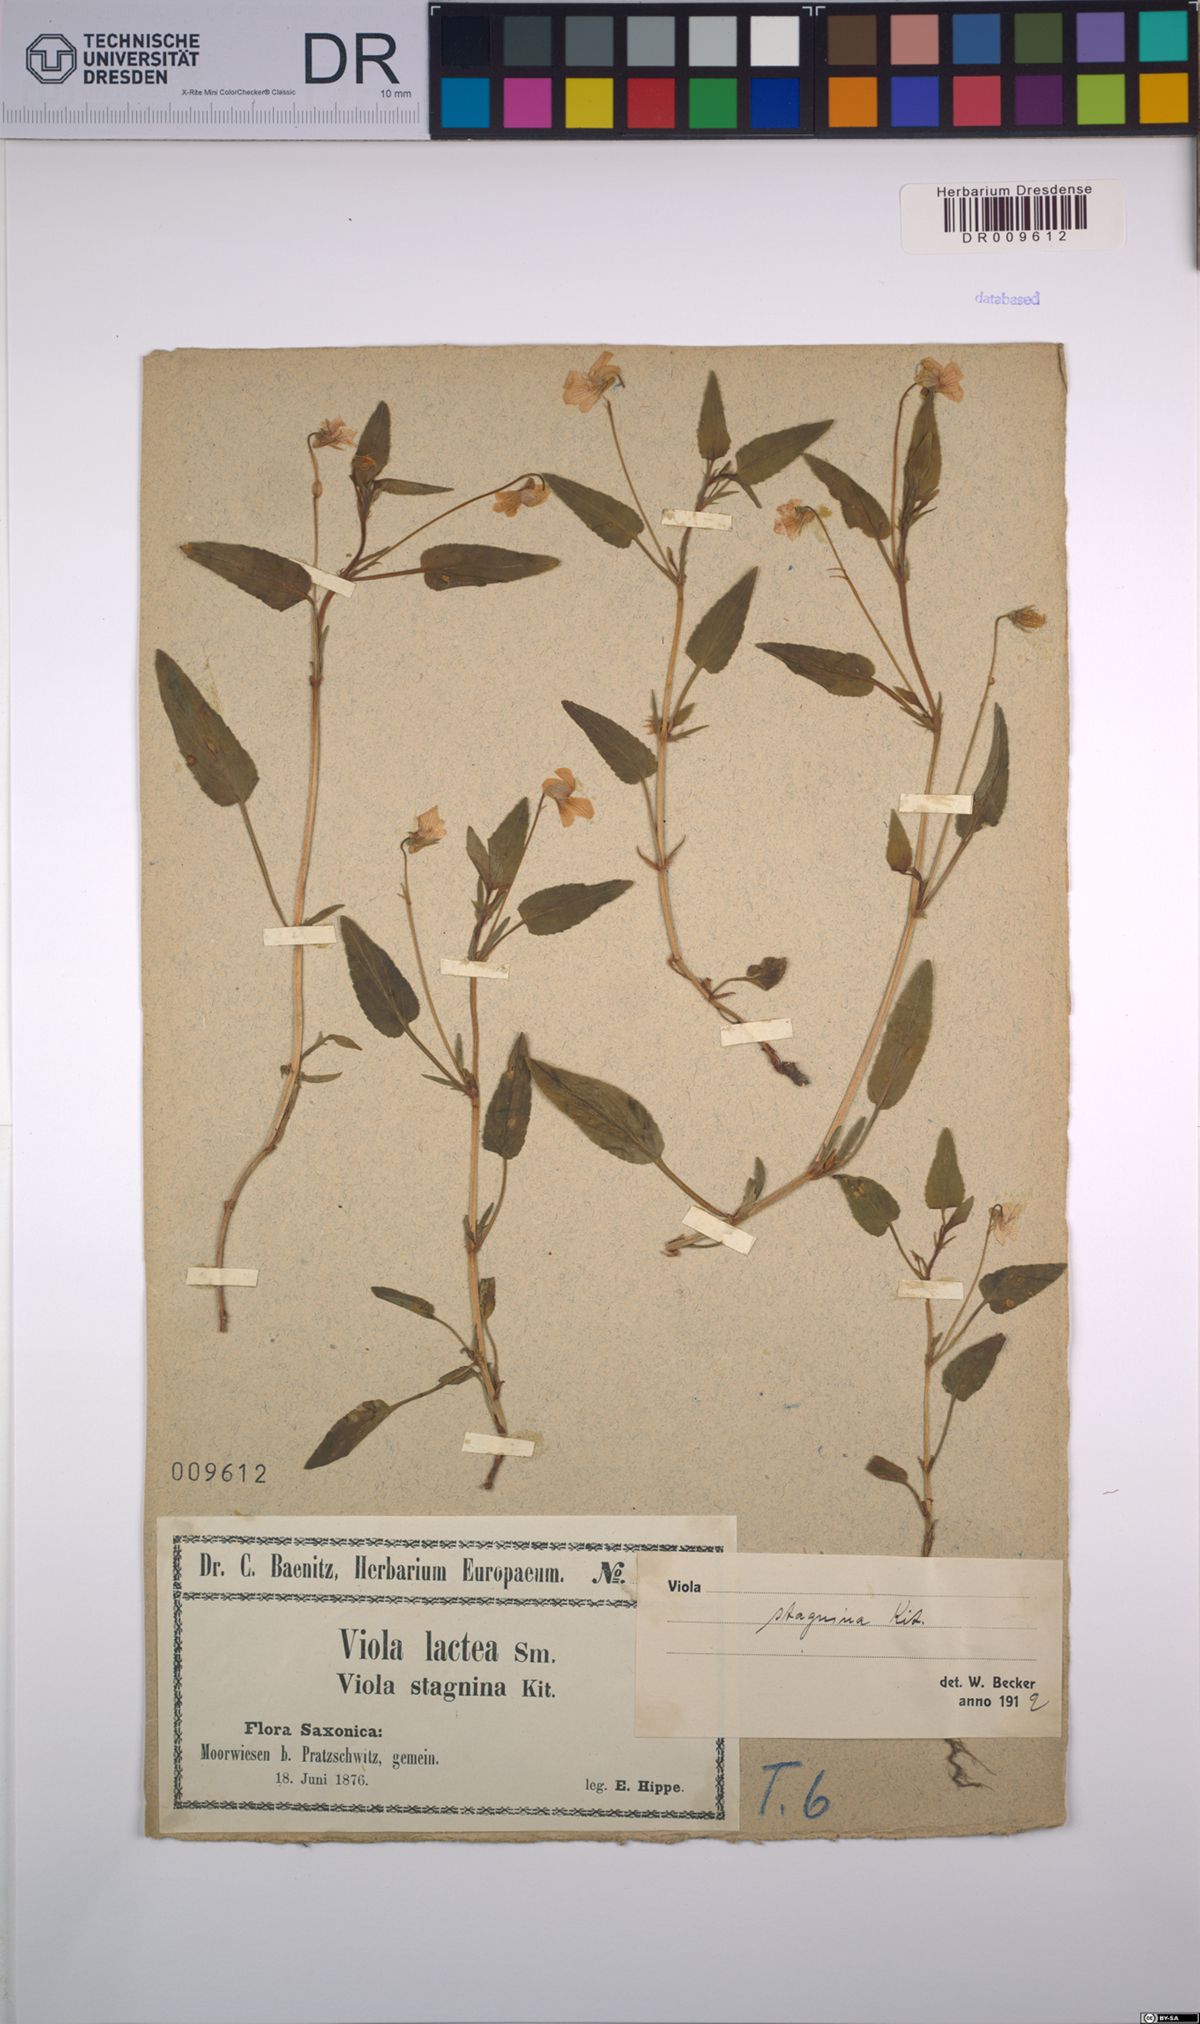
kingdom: Plantae
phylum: Tracheophyta
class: Magnoliopsida
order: Malpighiales
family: Violaceae
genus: Viola
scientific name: Viola stagnina
